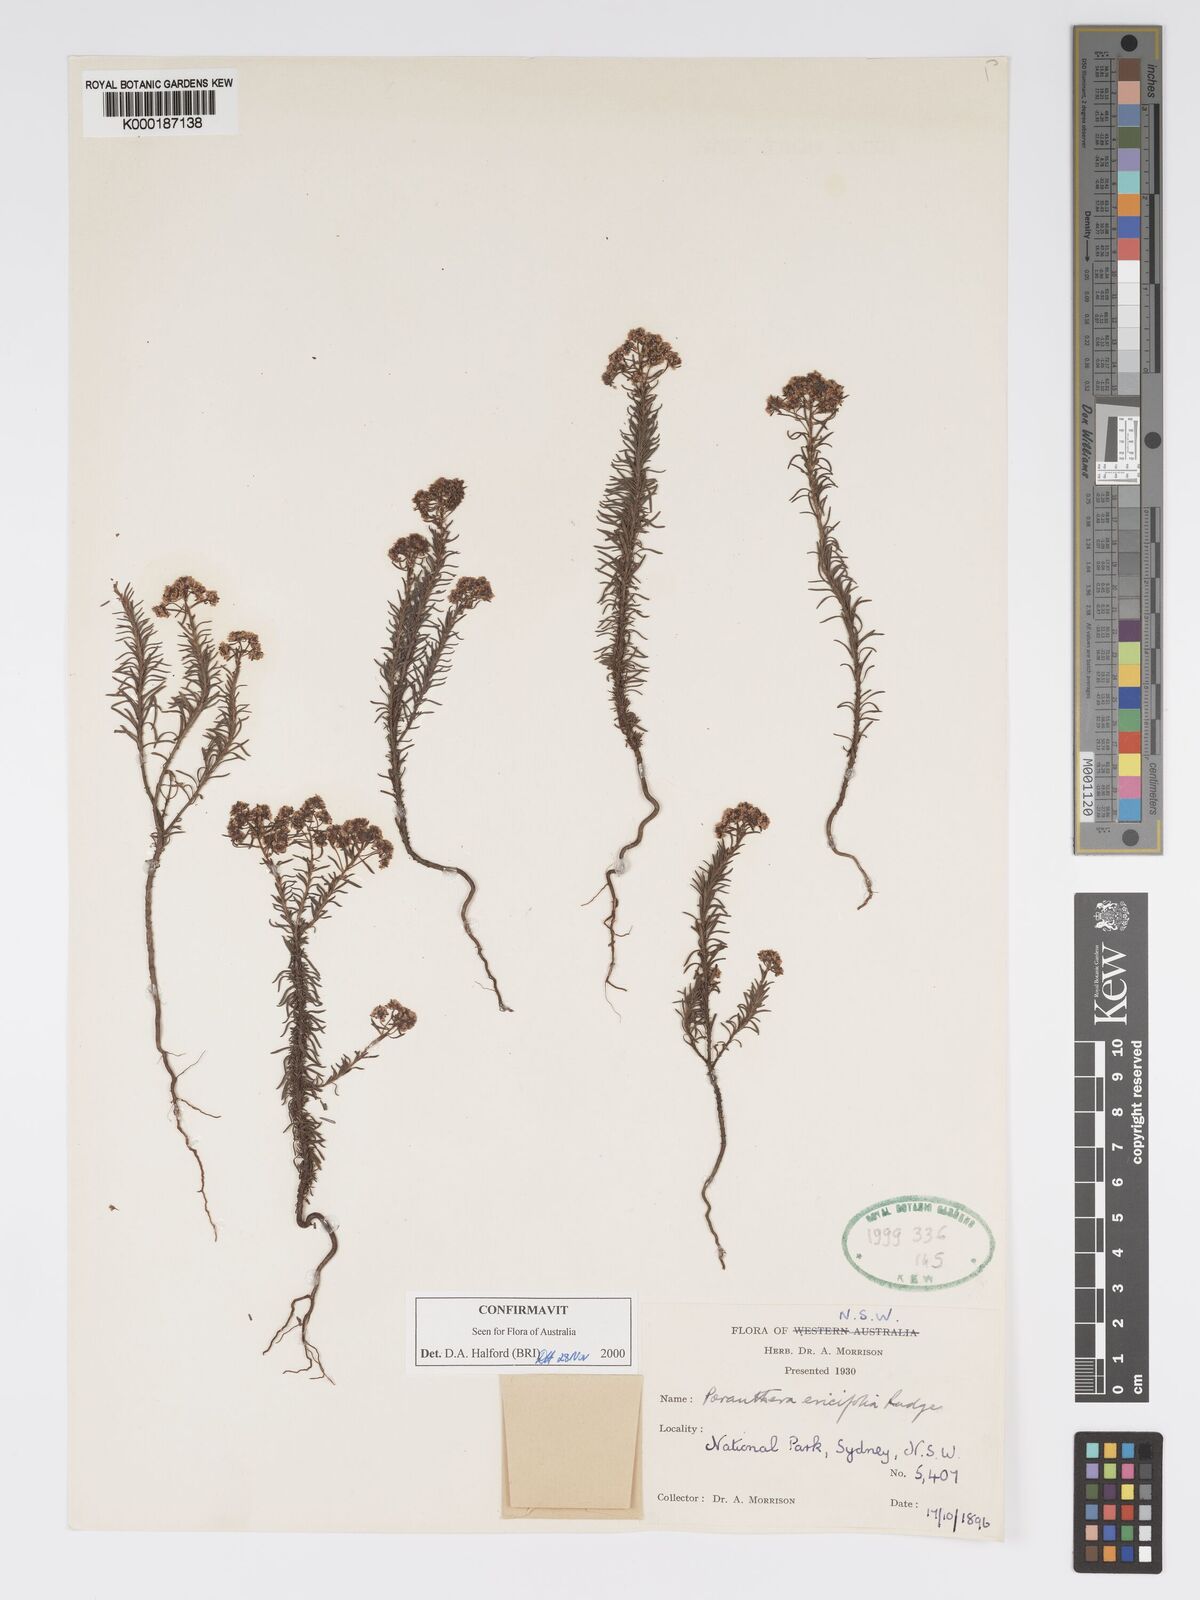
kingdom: Plantae
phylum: Tracheophyta
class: Magnoliopsida
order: Malpighiales
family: Phyllanthaceae
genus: Poranthera
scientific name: Poranthera ericifolia
